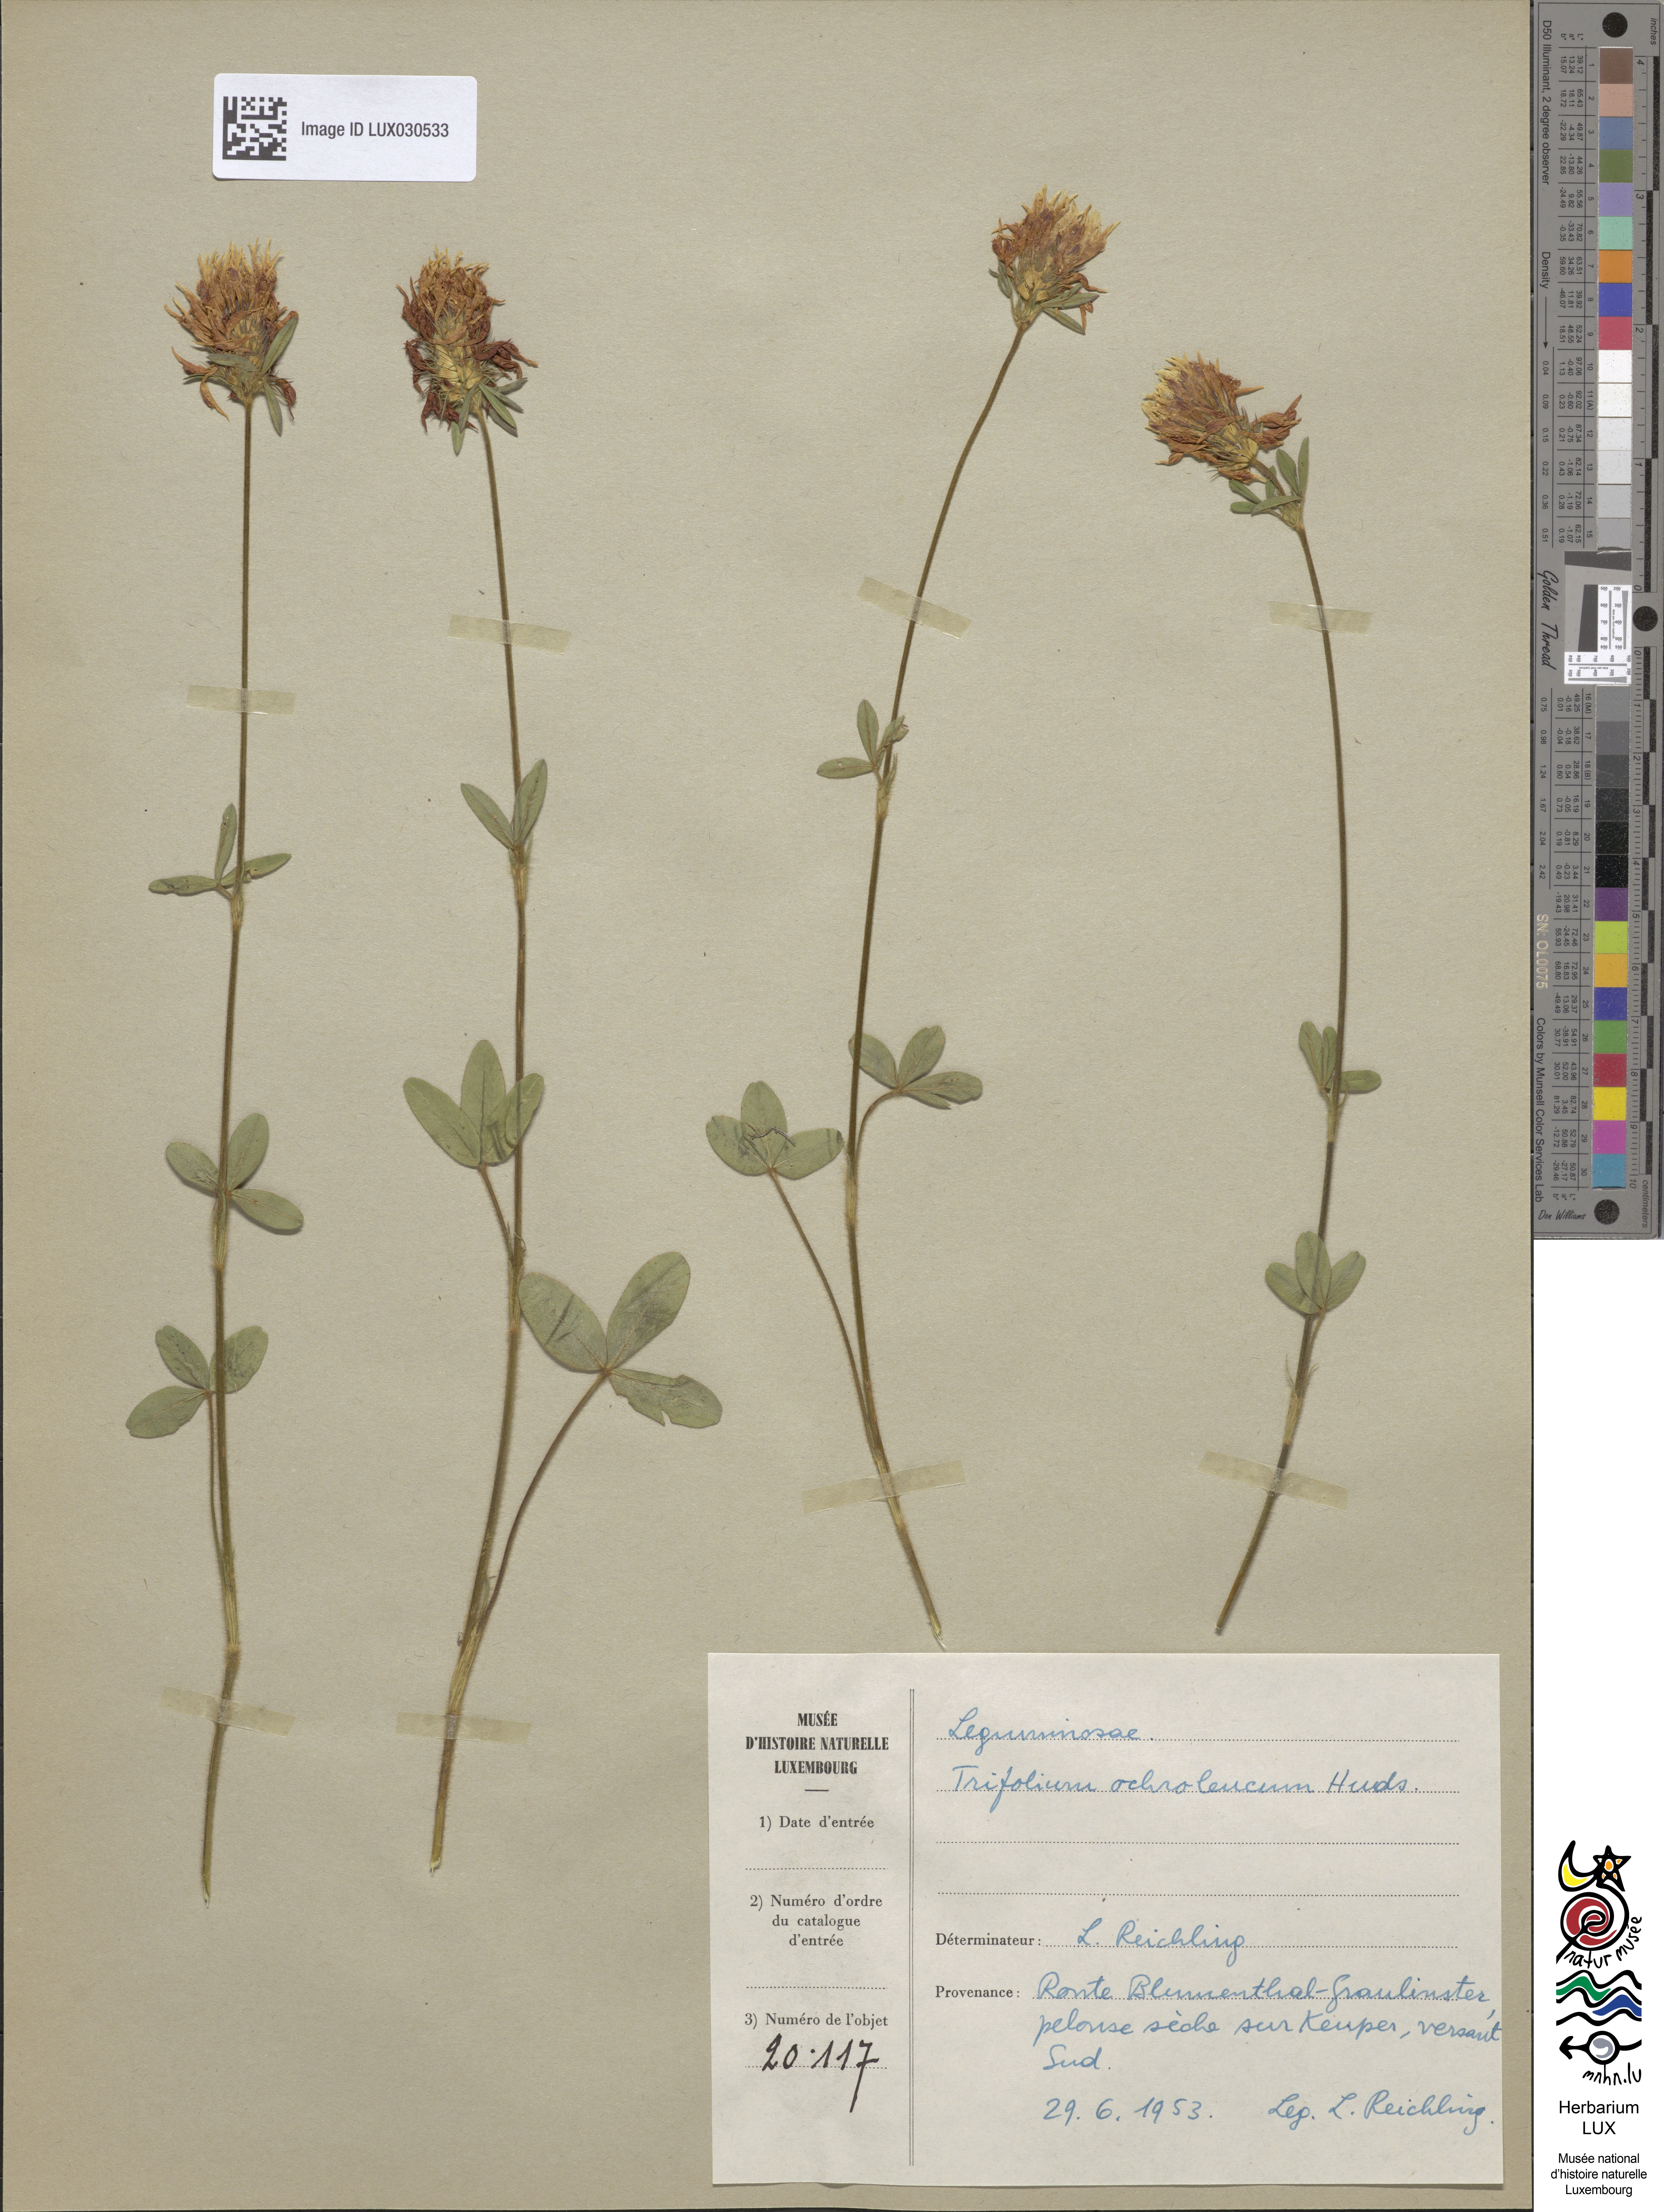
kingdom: Plantae
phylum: Tracheophyta
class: Magnoliopsida
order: Fabales
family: Fabaceae
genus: Trifolium
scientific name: Trifolium ochroleucon
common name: Sulphur clover
